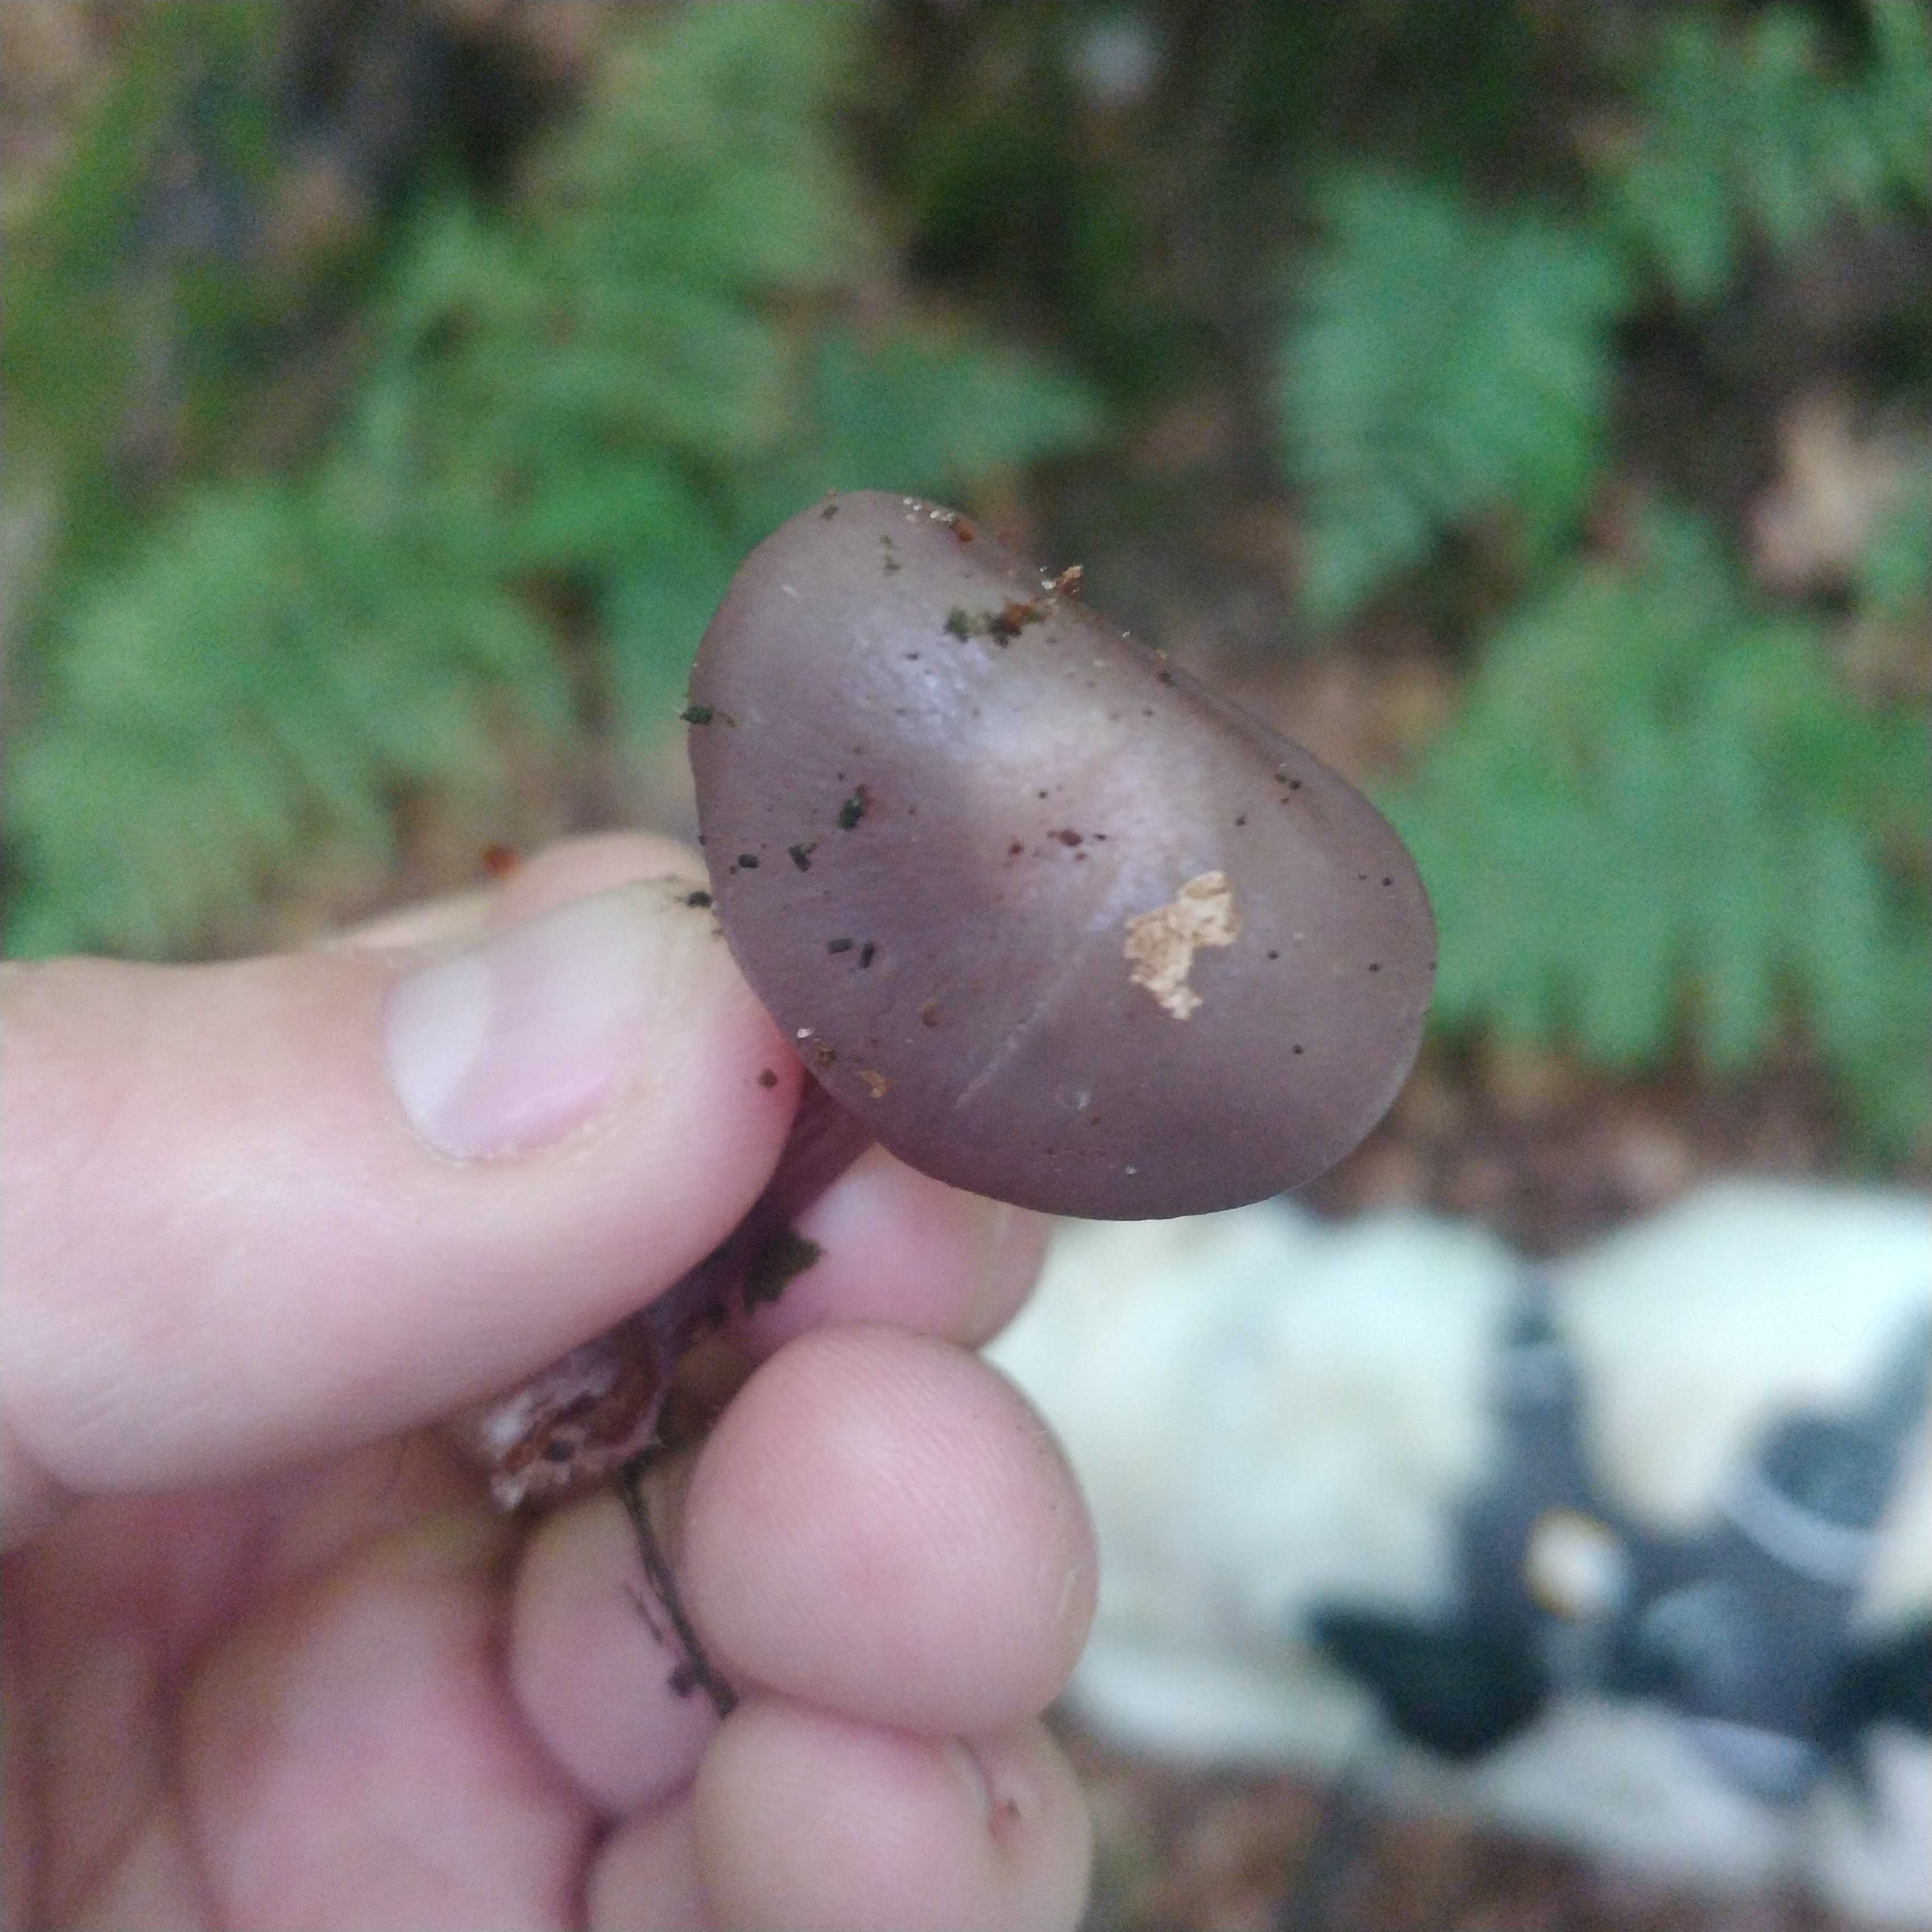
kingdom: Fungi
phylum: Basidiomycota
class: Agaricomycetes
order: Agaricales
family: Mycenaceae
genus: Mycena
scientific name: Mycena pelianthina
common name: mørkbladet huesvamp
